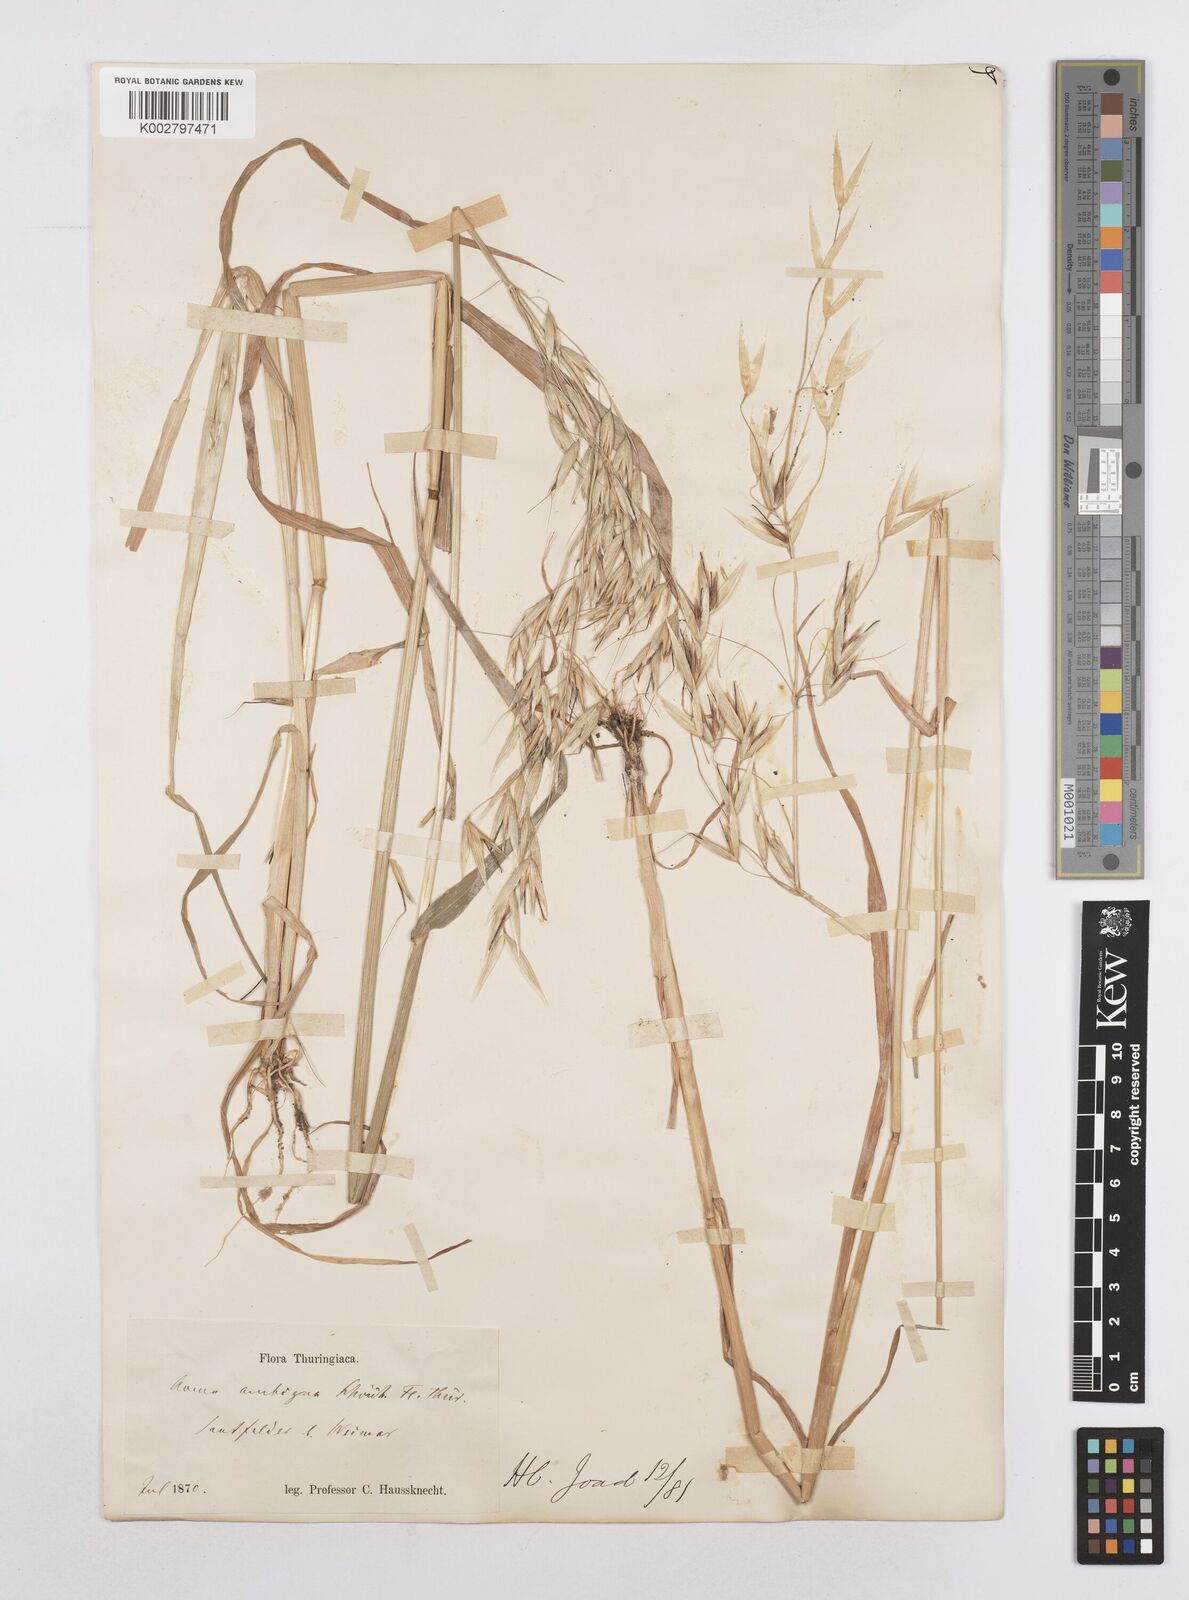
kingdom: Plantae
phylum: Tracheophyta
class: Liliopsida
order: Poales
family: Poaceae
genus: Avena
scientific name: Avena fatua
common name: Wild oat
